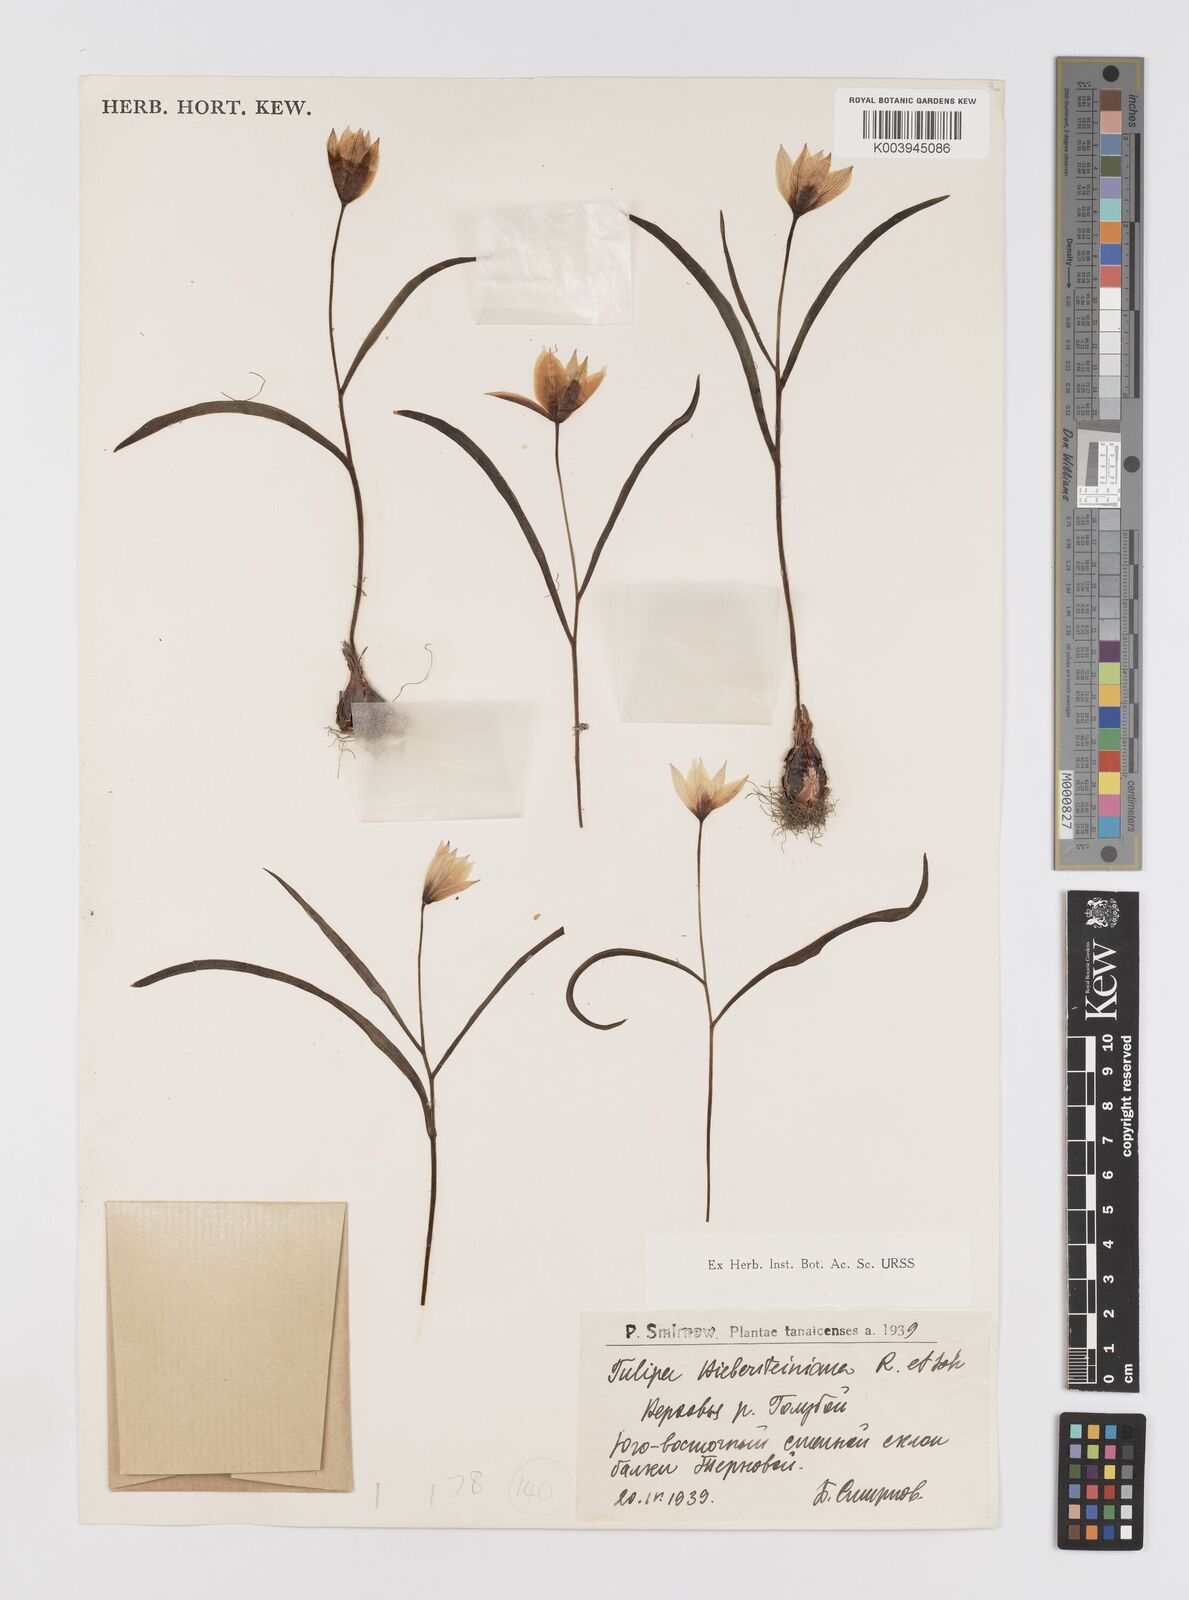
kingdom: Plantae
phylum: Tracheophyta
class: Liliopsida
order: Liliales
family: Liliaceae
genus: Tulipa
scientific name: Tulipa sylvestris
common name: Wild tulip
